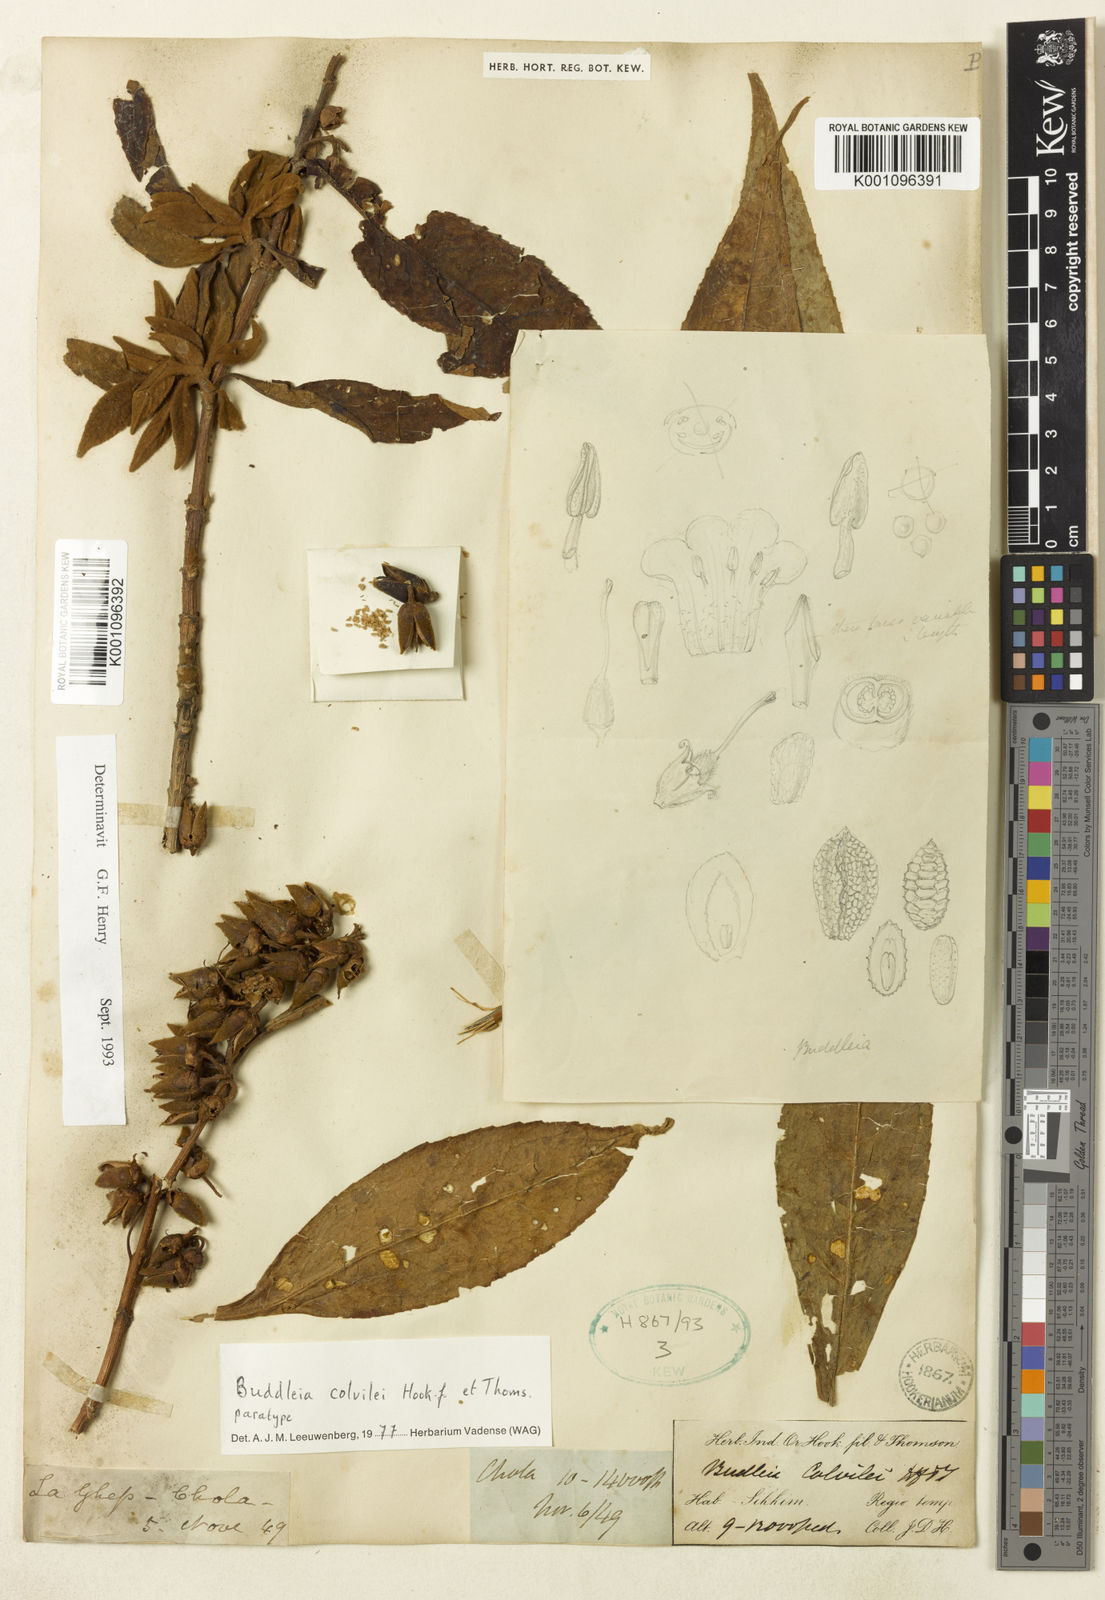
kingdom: Plantae
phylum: Tracheophyta
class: Magnoliopsida
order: Lamiales
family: Scrophulariaceae
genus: Buddleja
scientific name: Buddleja colvilei
